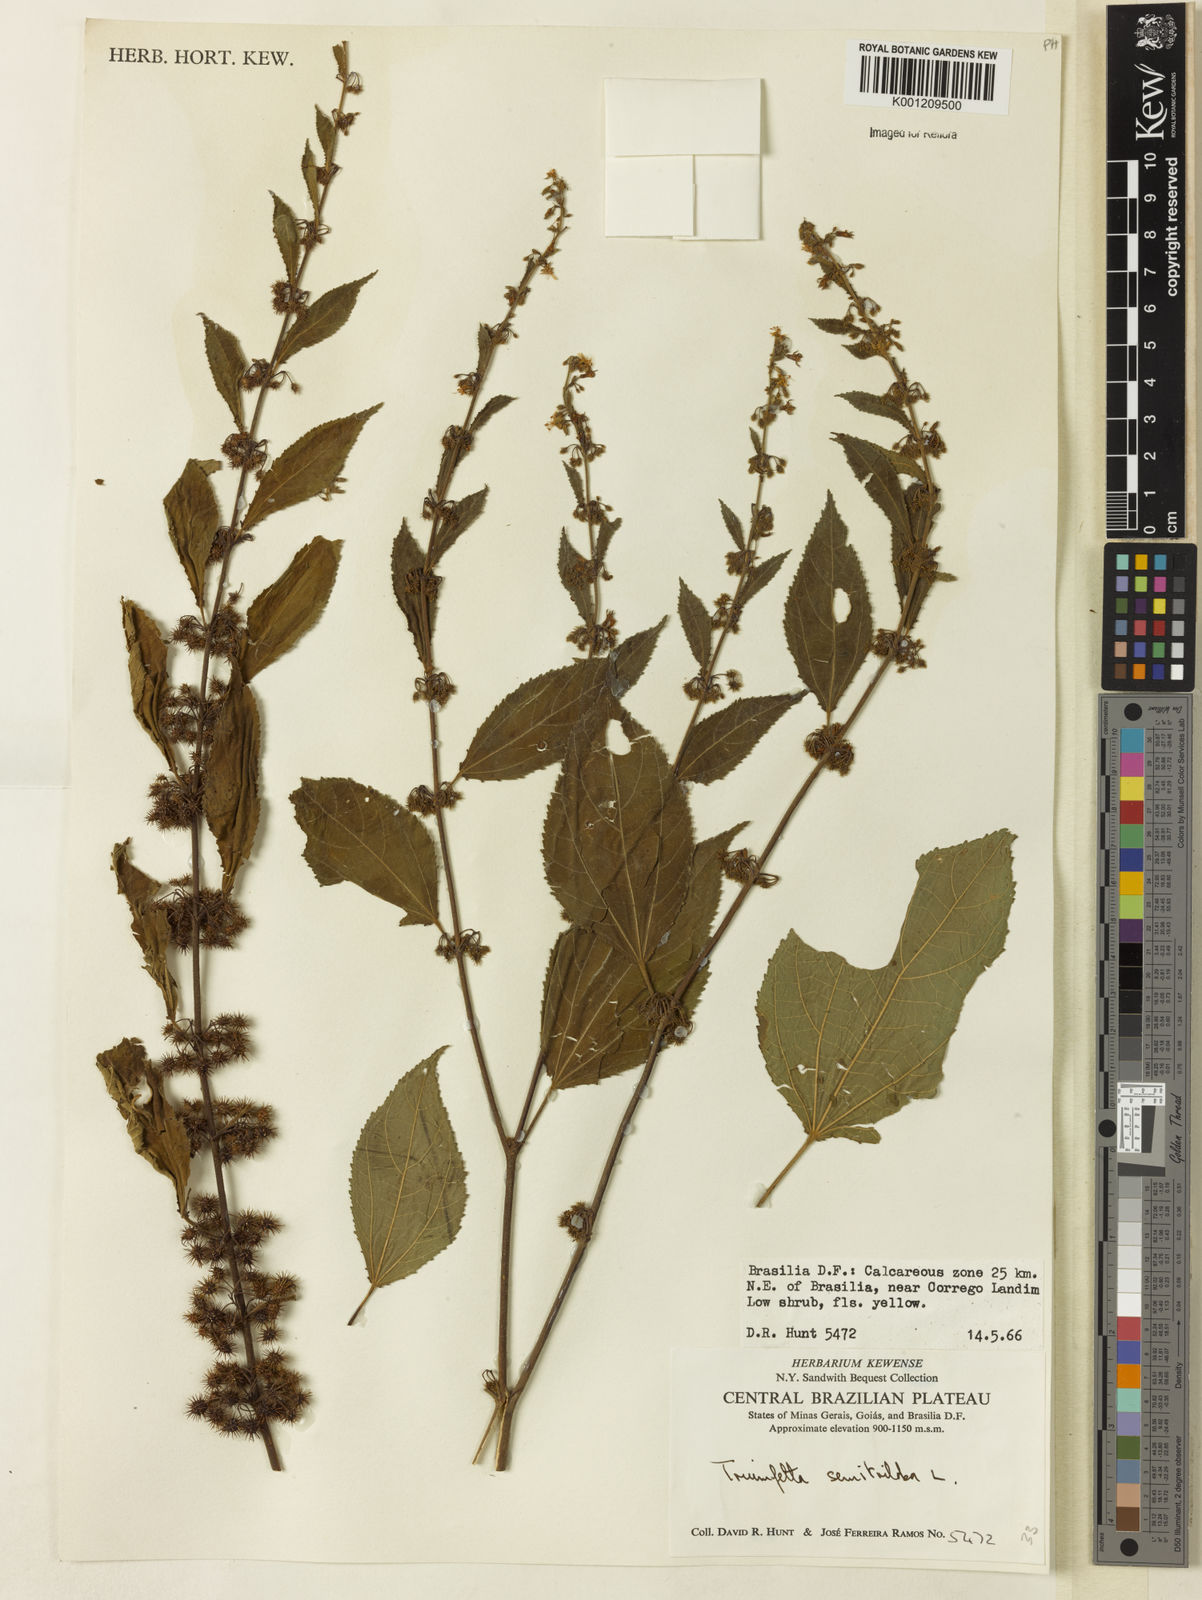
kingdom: Plantae
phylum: Tracheophyta
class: Magnoliopsida
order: Malvales
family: Malvaceae
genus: Triumfetta
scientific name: Triumfetta semitriloba
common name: Sacramento burbark
